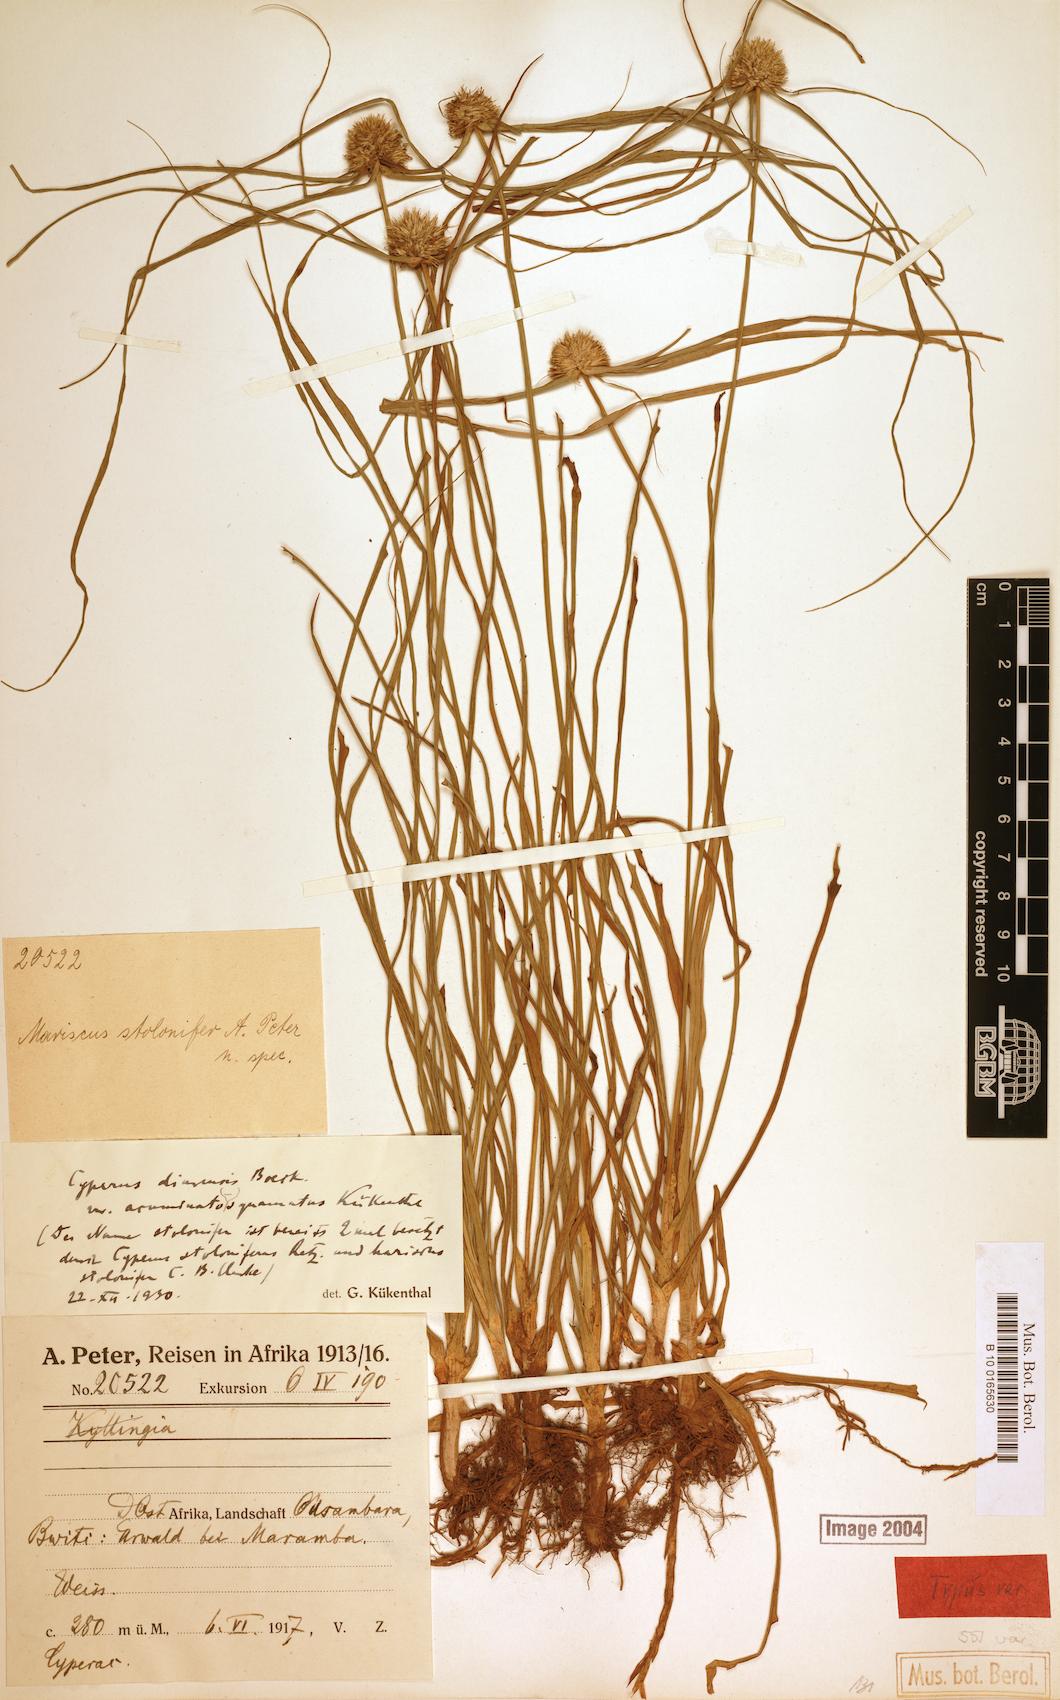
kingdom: Plantae
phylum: Tracheophyta
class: Liliopsida
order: Poales
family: Cyperaceae
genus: Cyperus
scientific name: Cyperus diurensis
